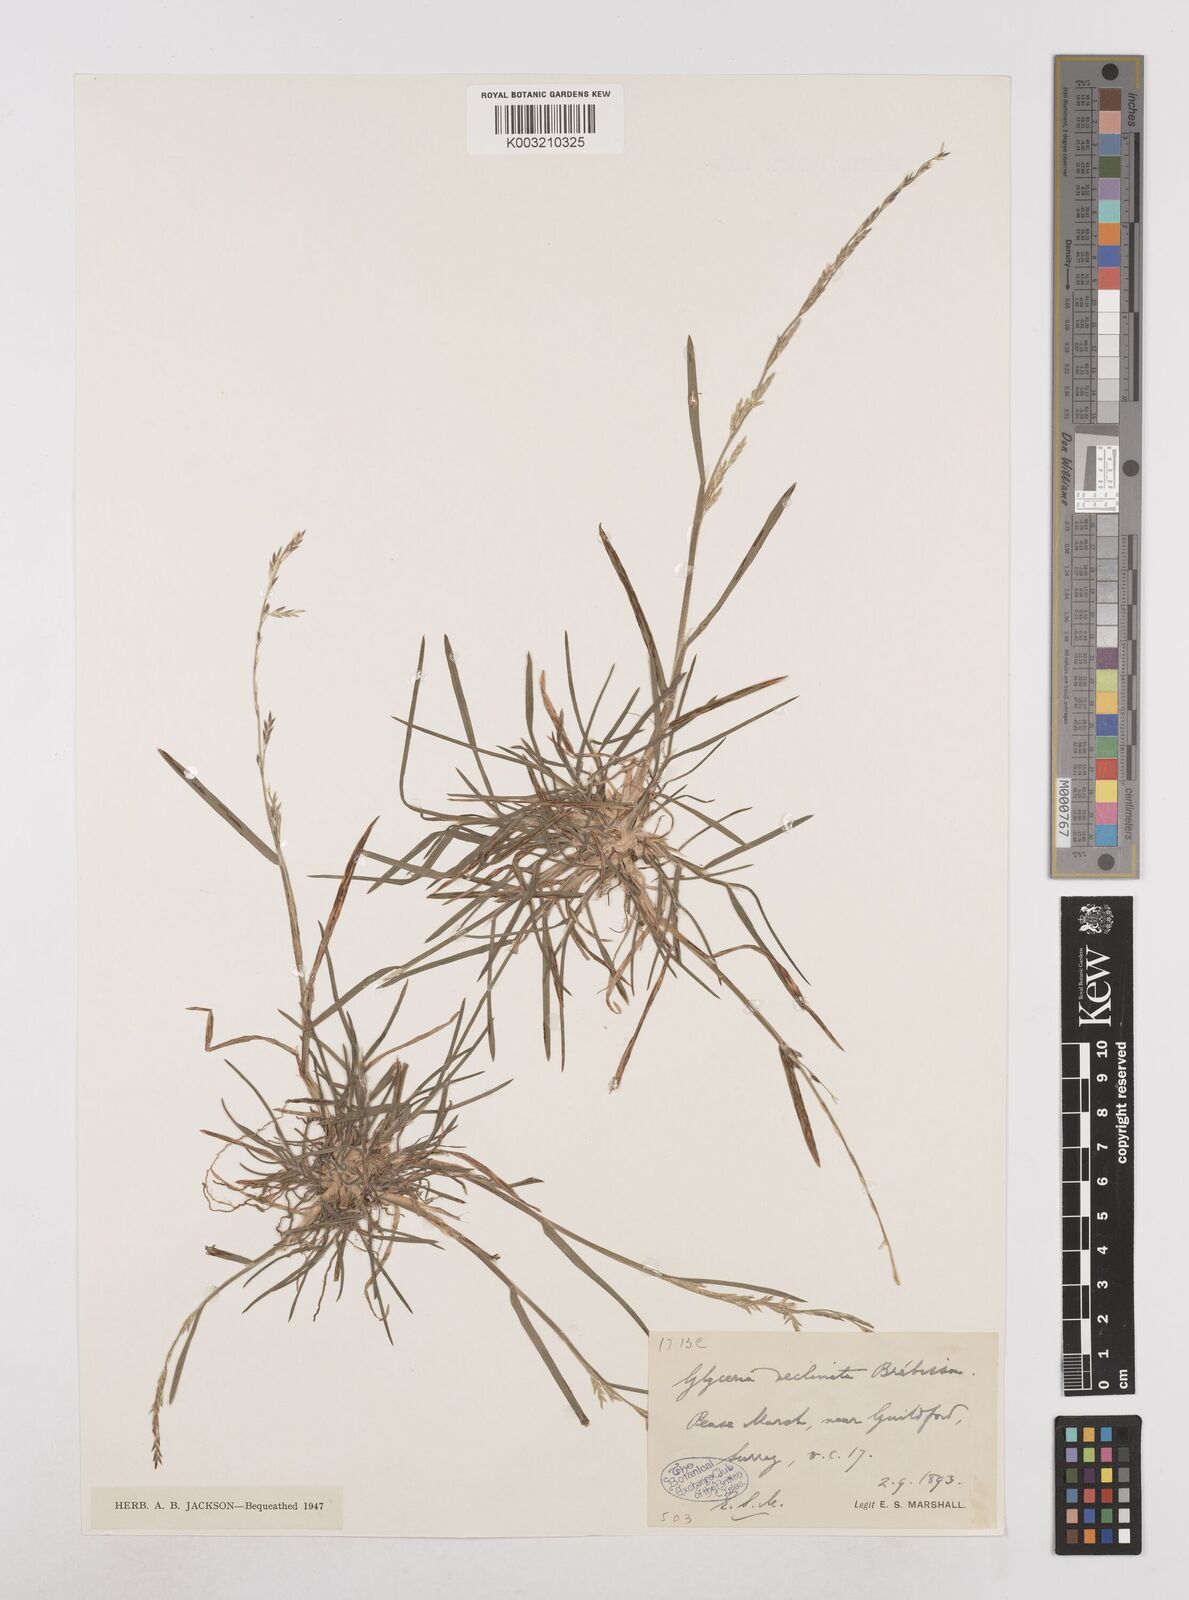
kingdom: Plantae
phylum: Tracheophyta
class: Liliopsida
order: Poales
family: Poaceae
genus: Glyceria
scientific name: Glyceria declinata
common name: Small sweet-grass
